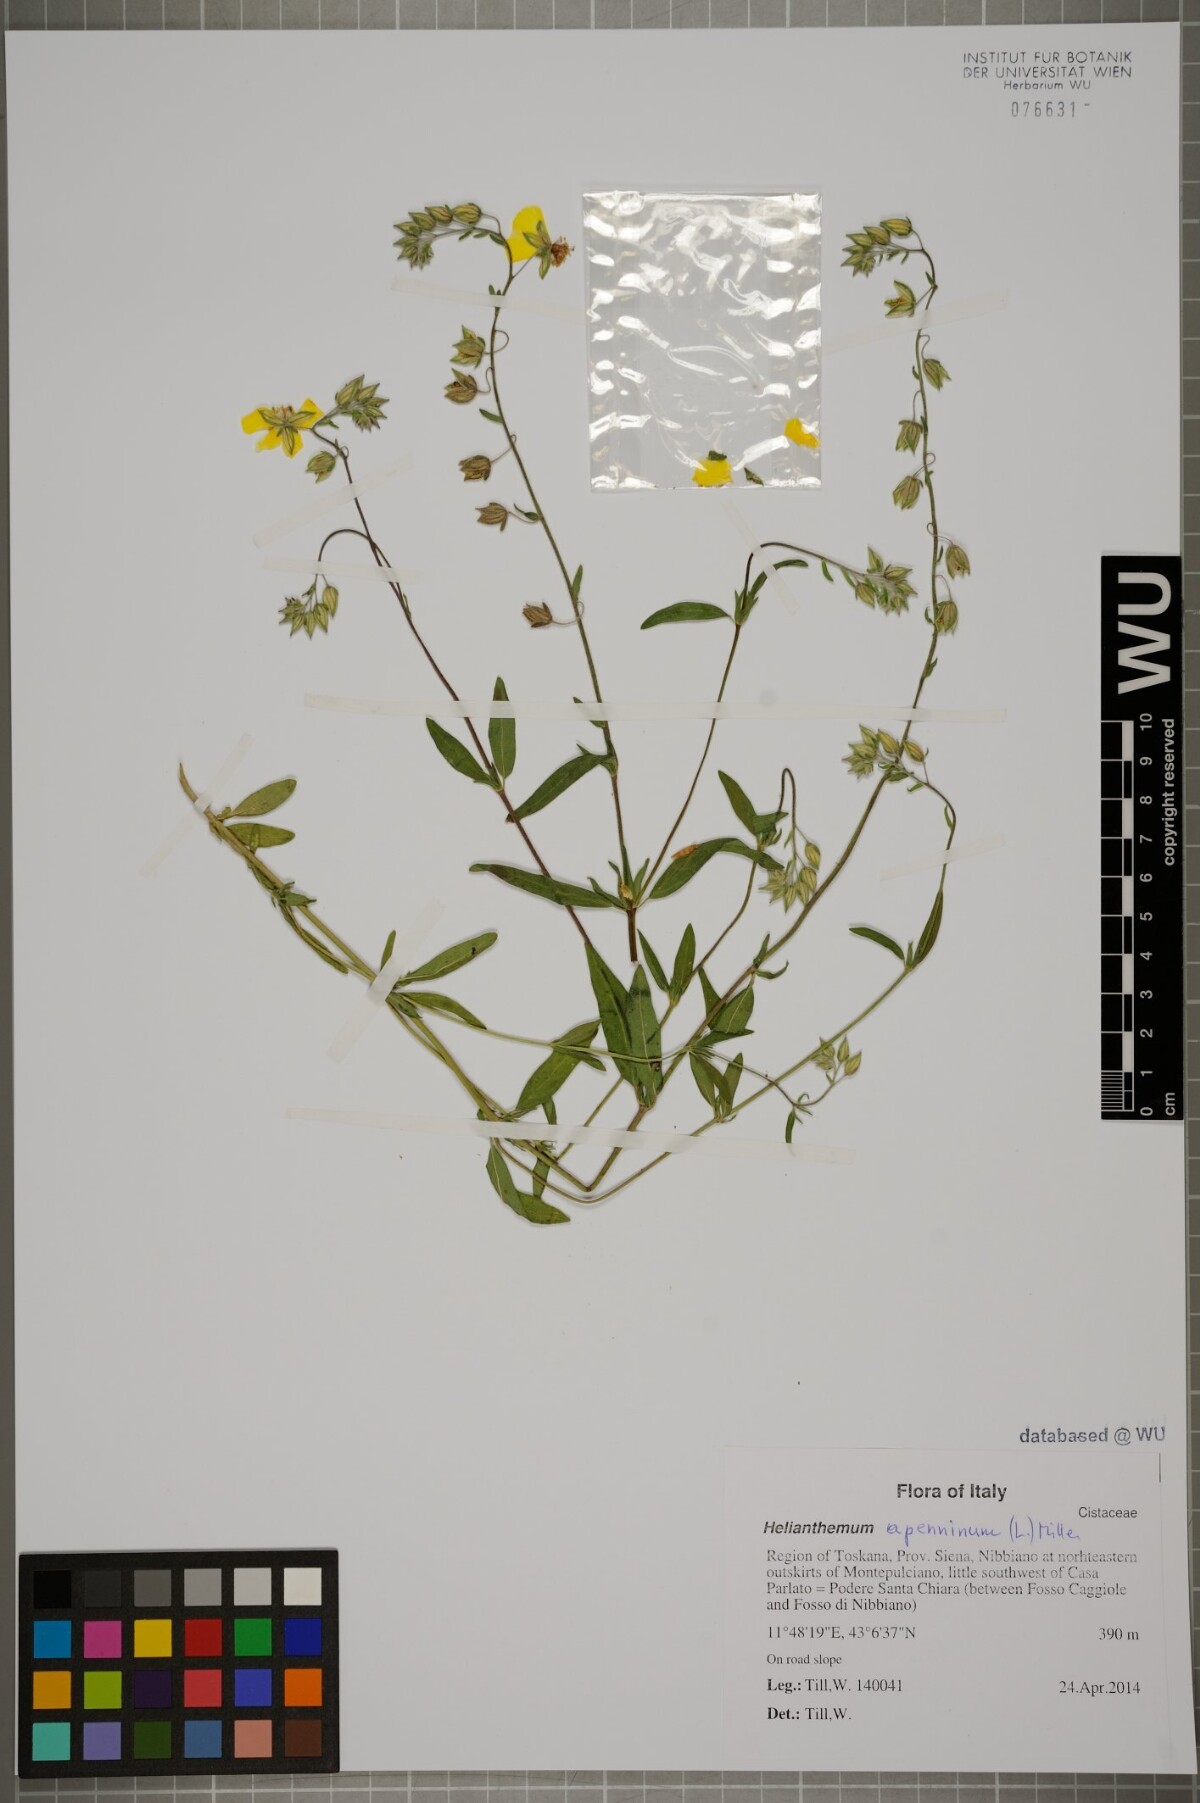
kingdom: Plantae
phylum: Tracheophyta
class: Magnoliopsida
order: Malvales
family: Cistaceae
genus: Helianthemum
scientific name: Helianthemum apenninum
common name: White rock-rose
